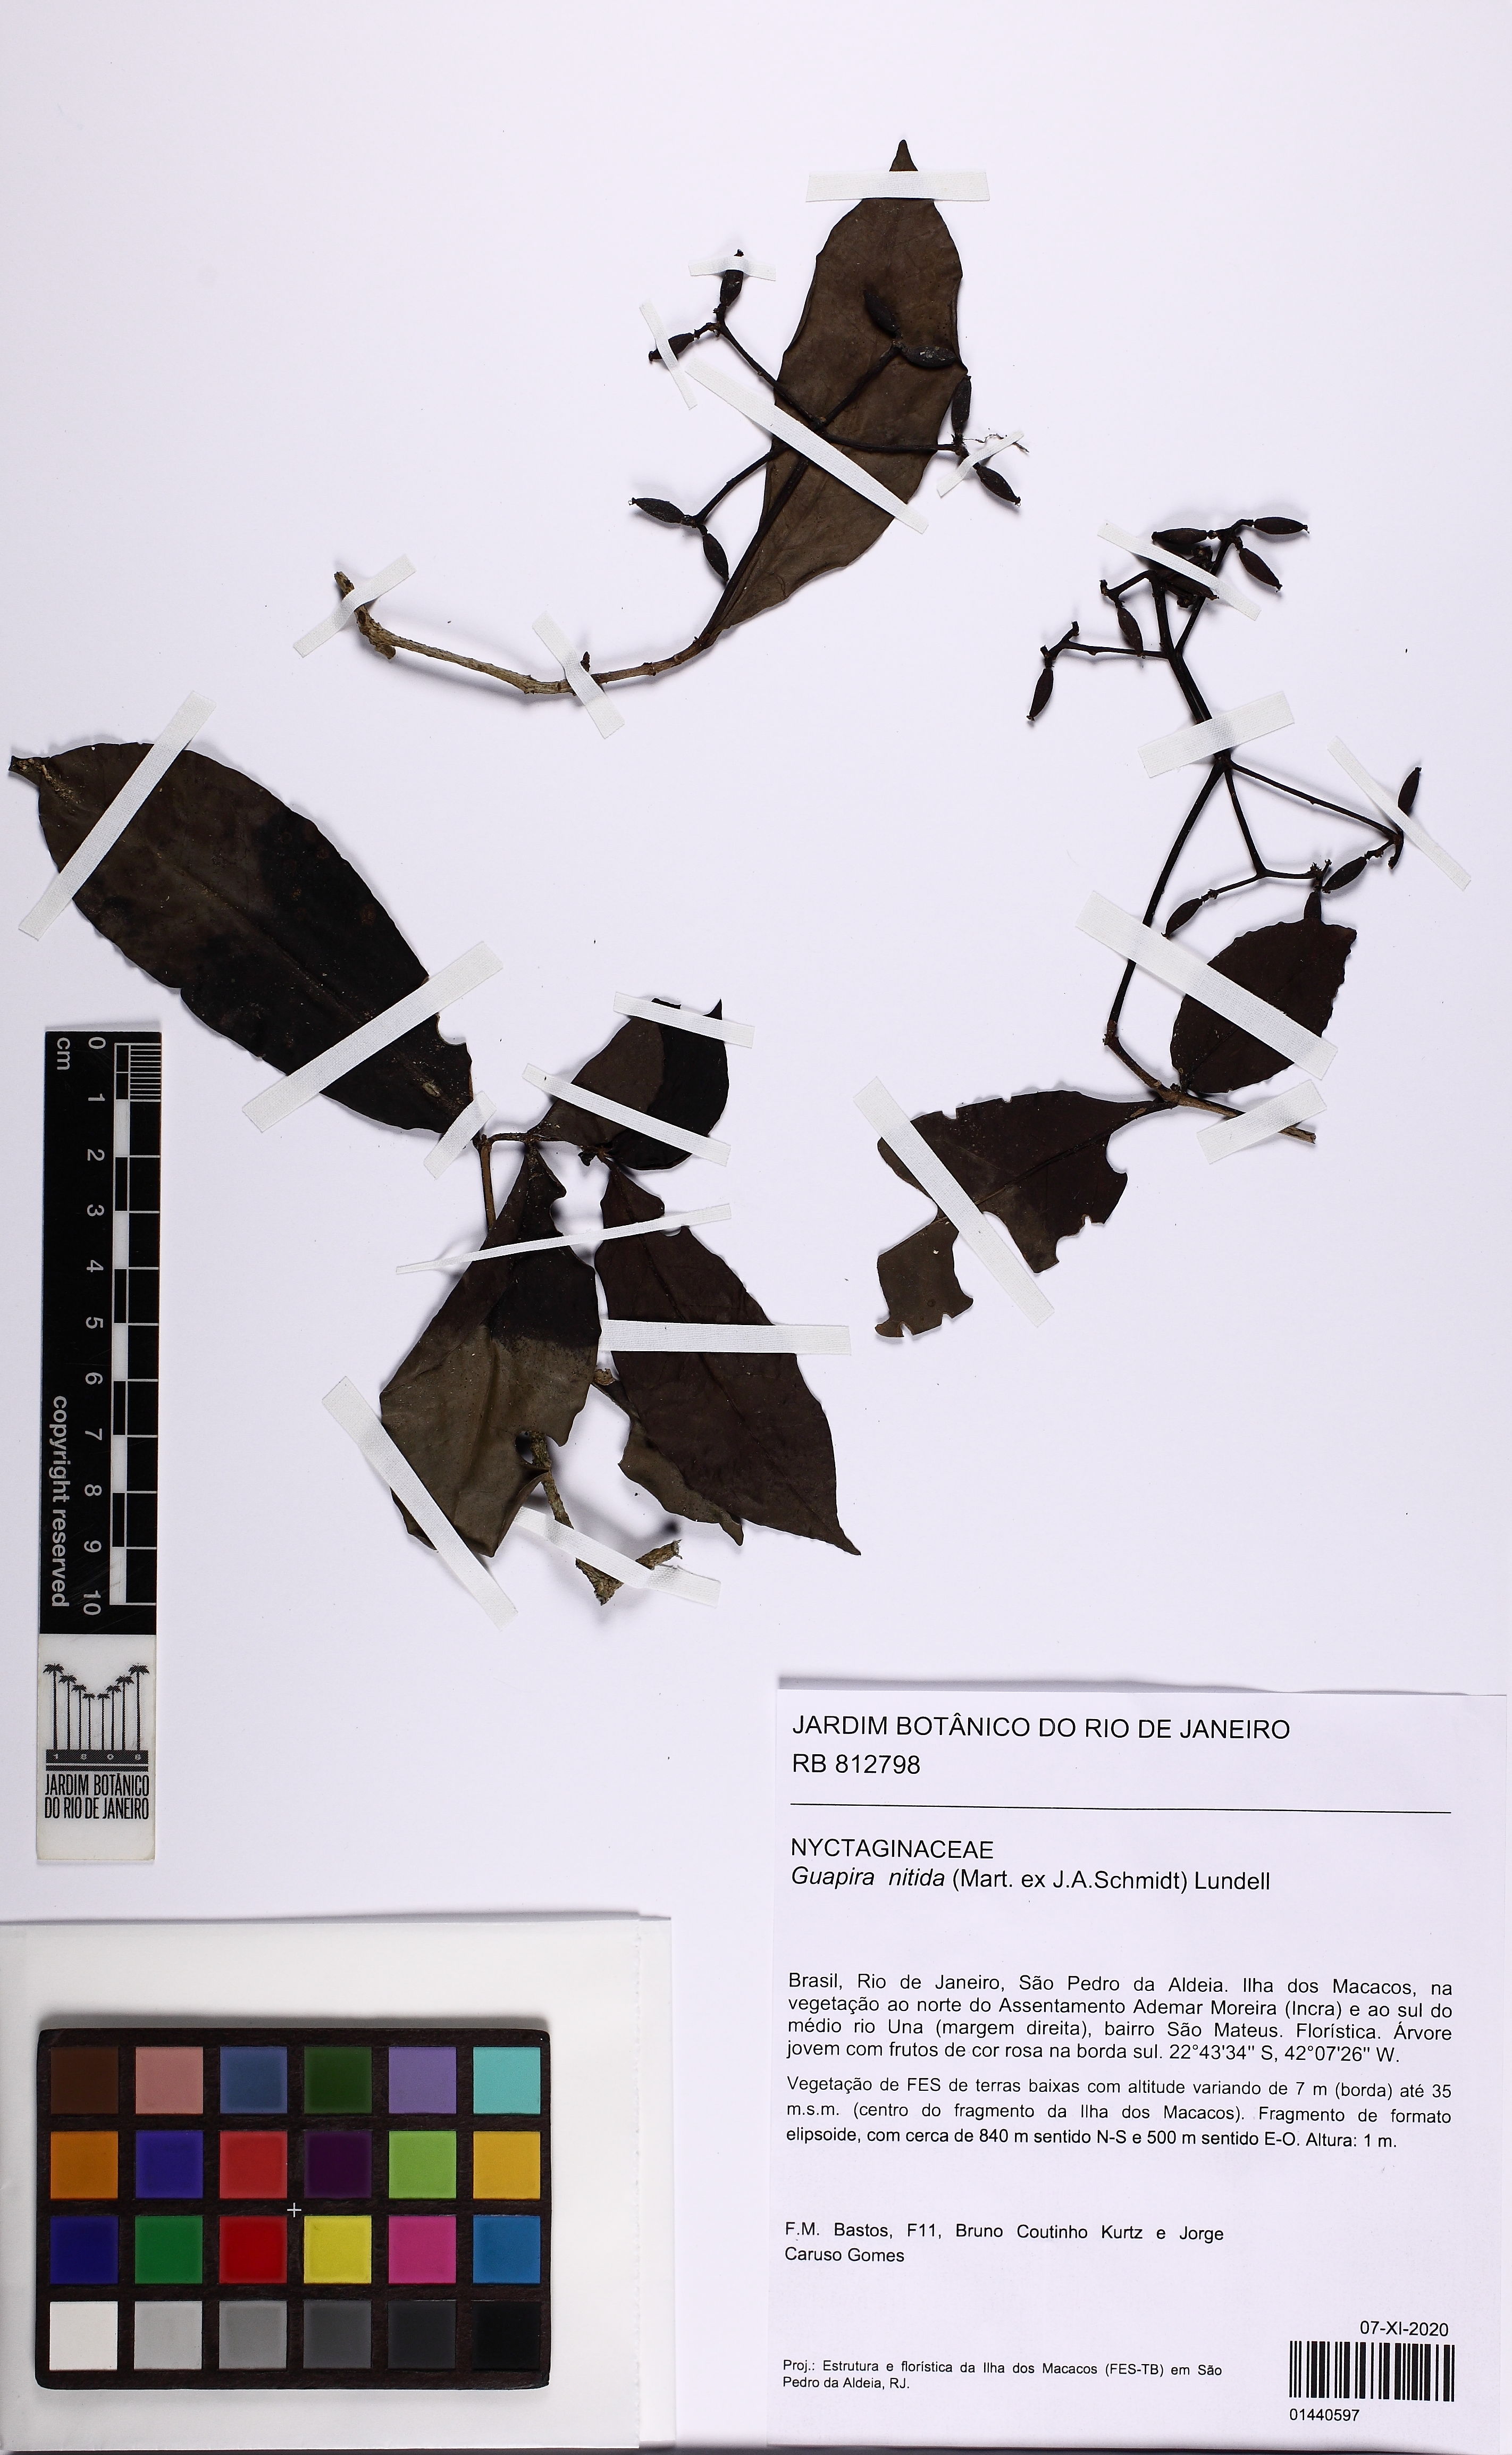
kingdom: Plantae
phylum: Tracheophyta
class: Magnoliopsida
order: Caryophyllales
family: Nyctaginaceae
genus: Guapira
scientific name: Guapira nitida
